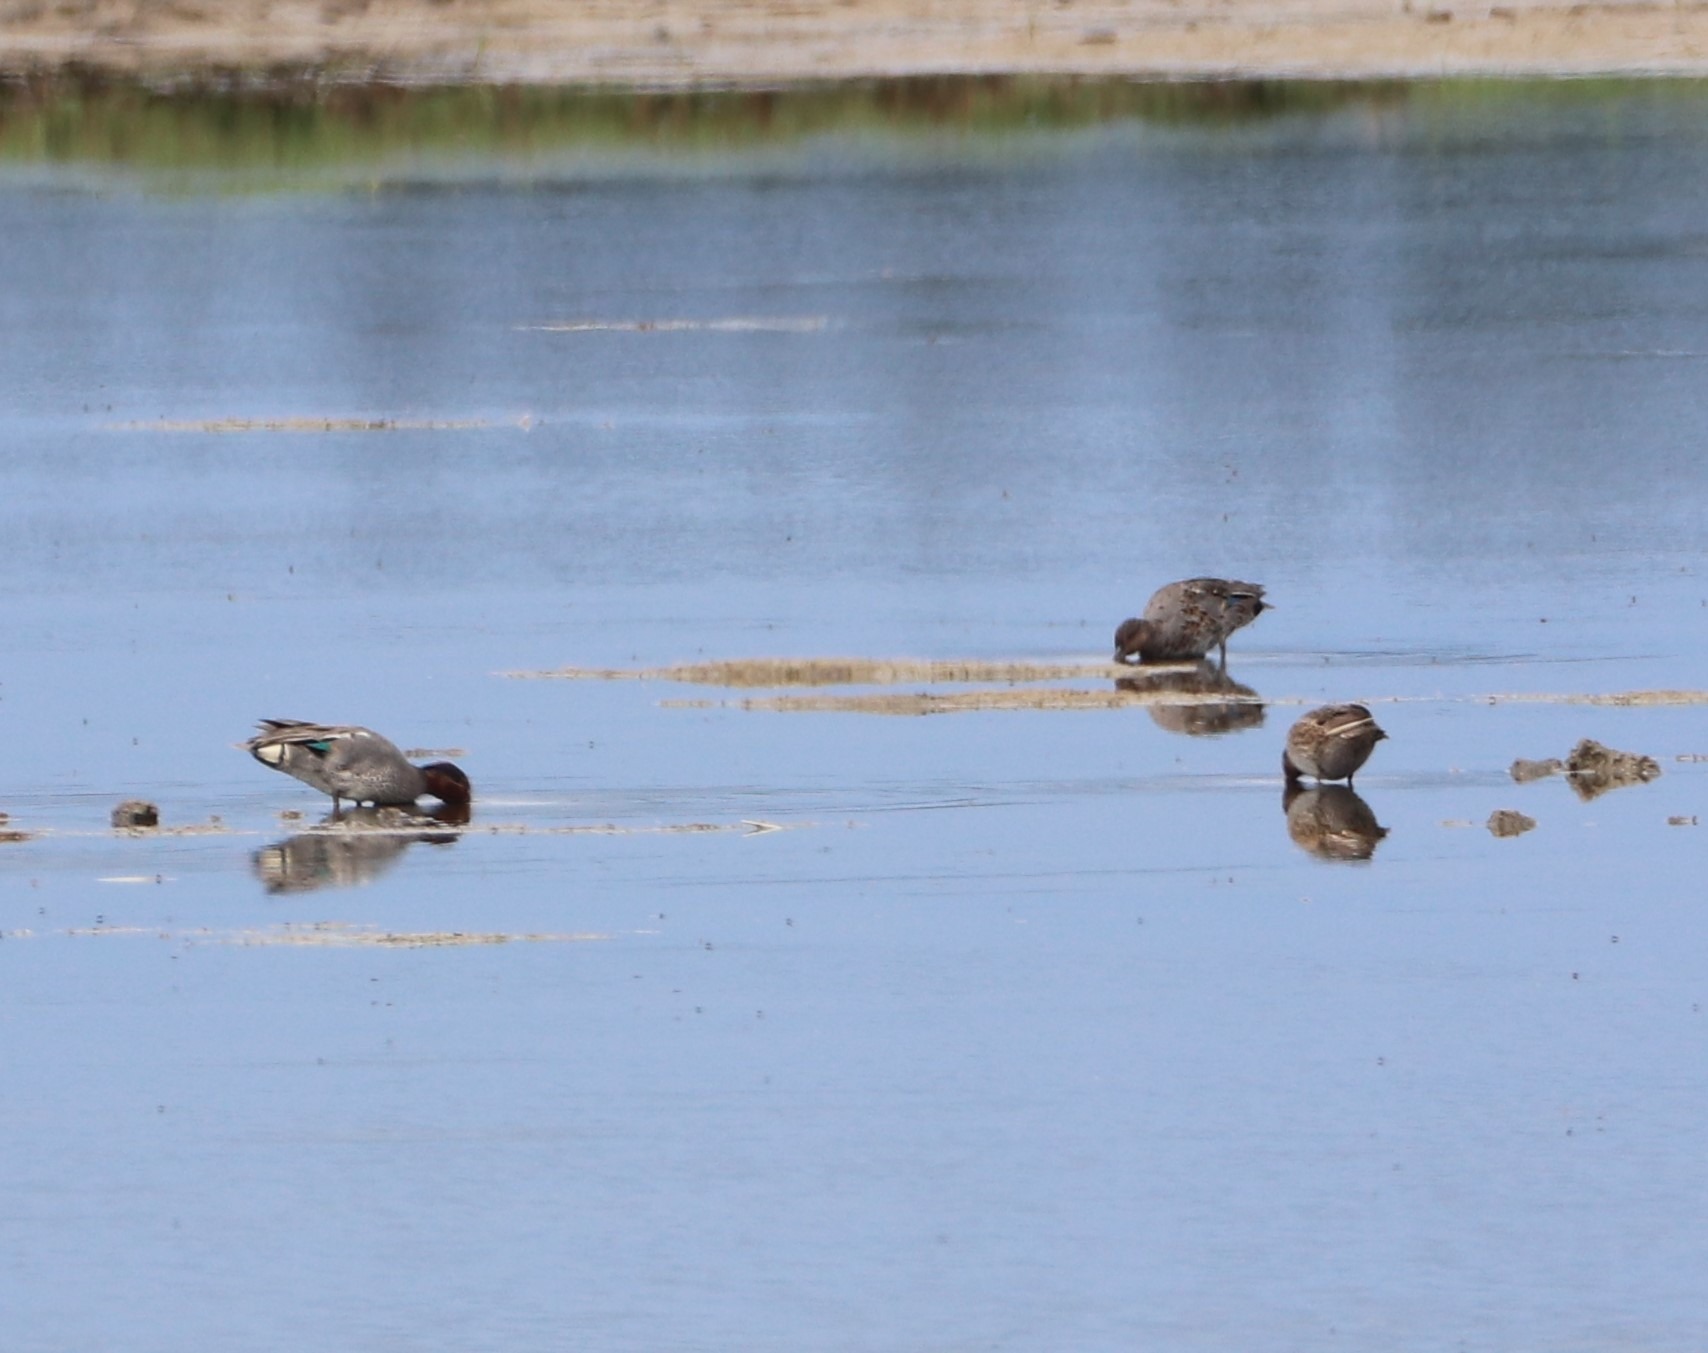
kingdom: Animalia
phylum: Chordata
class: Aves
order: Anseriformes
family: Anatidae
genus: Anas
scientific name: Anas crecca
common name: Krikand
